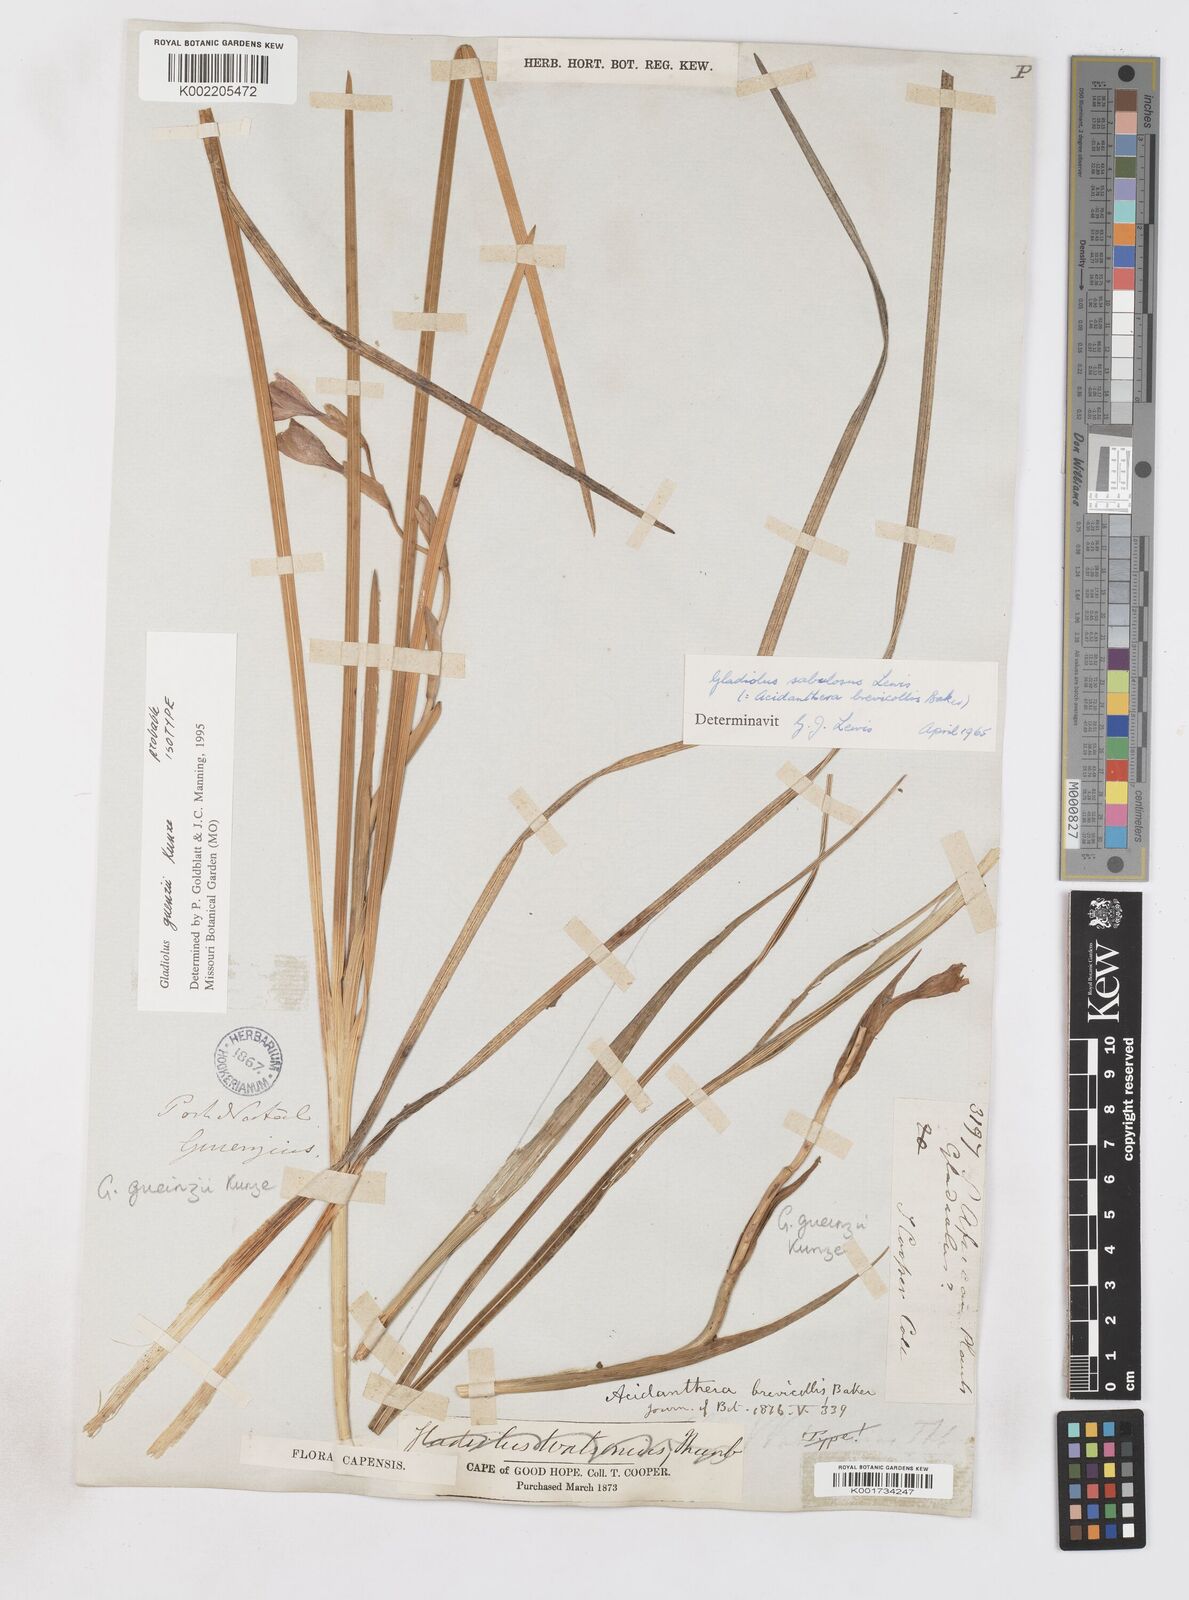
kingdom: Plantae
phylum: Tracheophyta
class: Liliopsida
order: Asparagales
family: Iridaceae
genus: Gladiolus
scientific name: Gladiolus gueinzii
